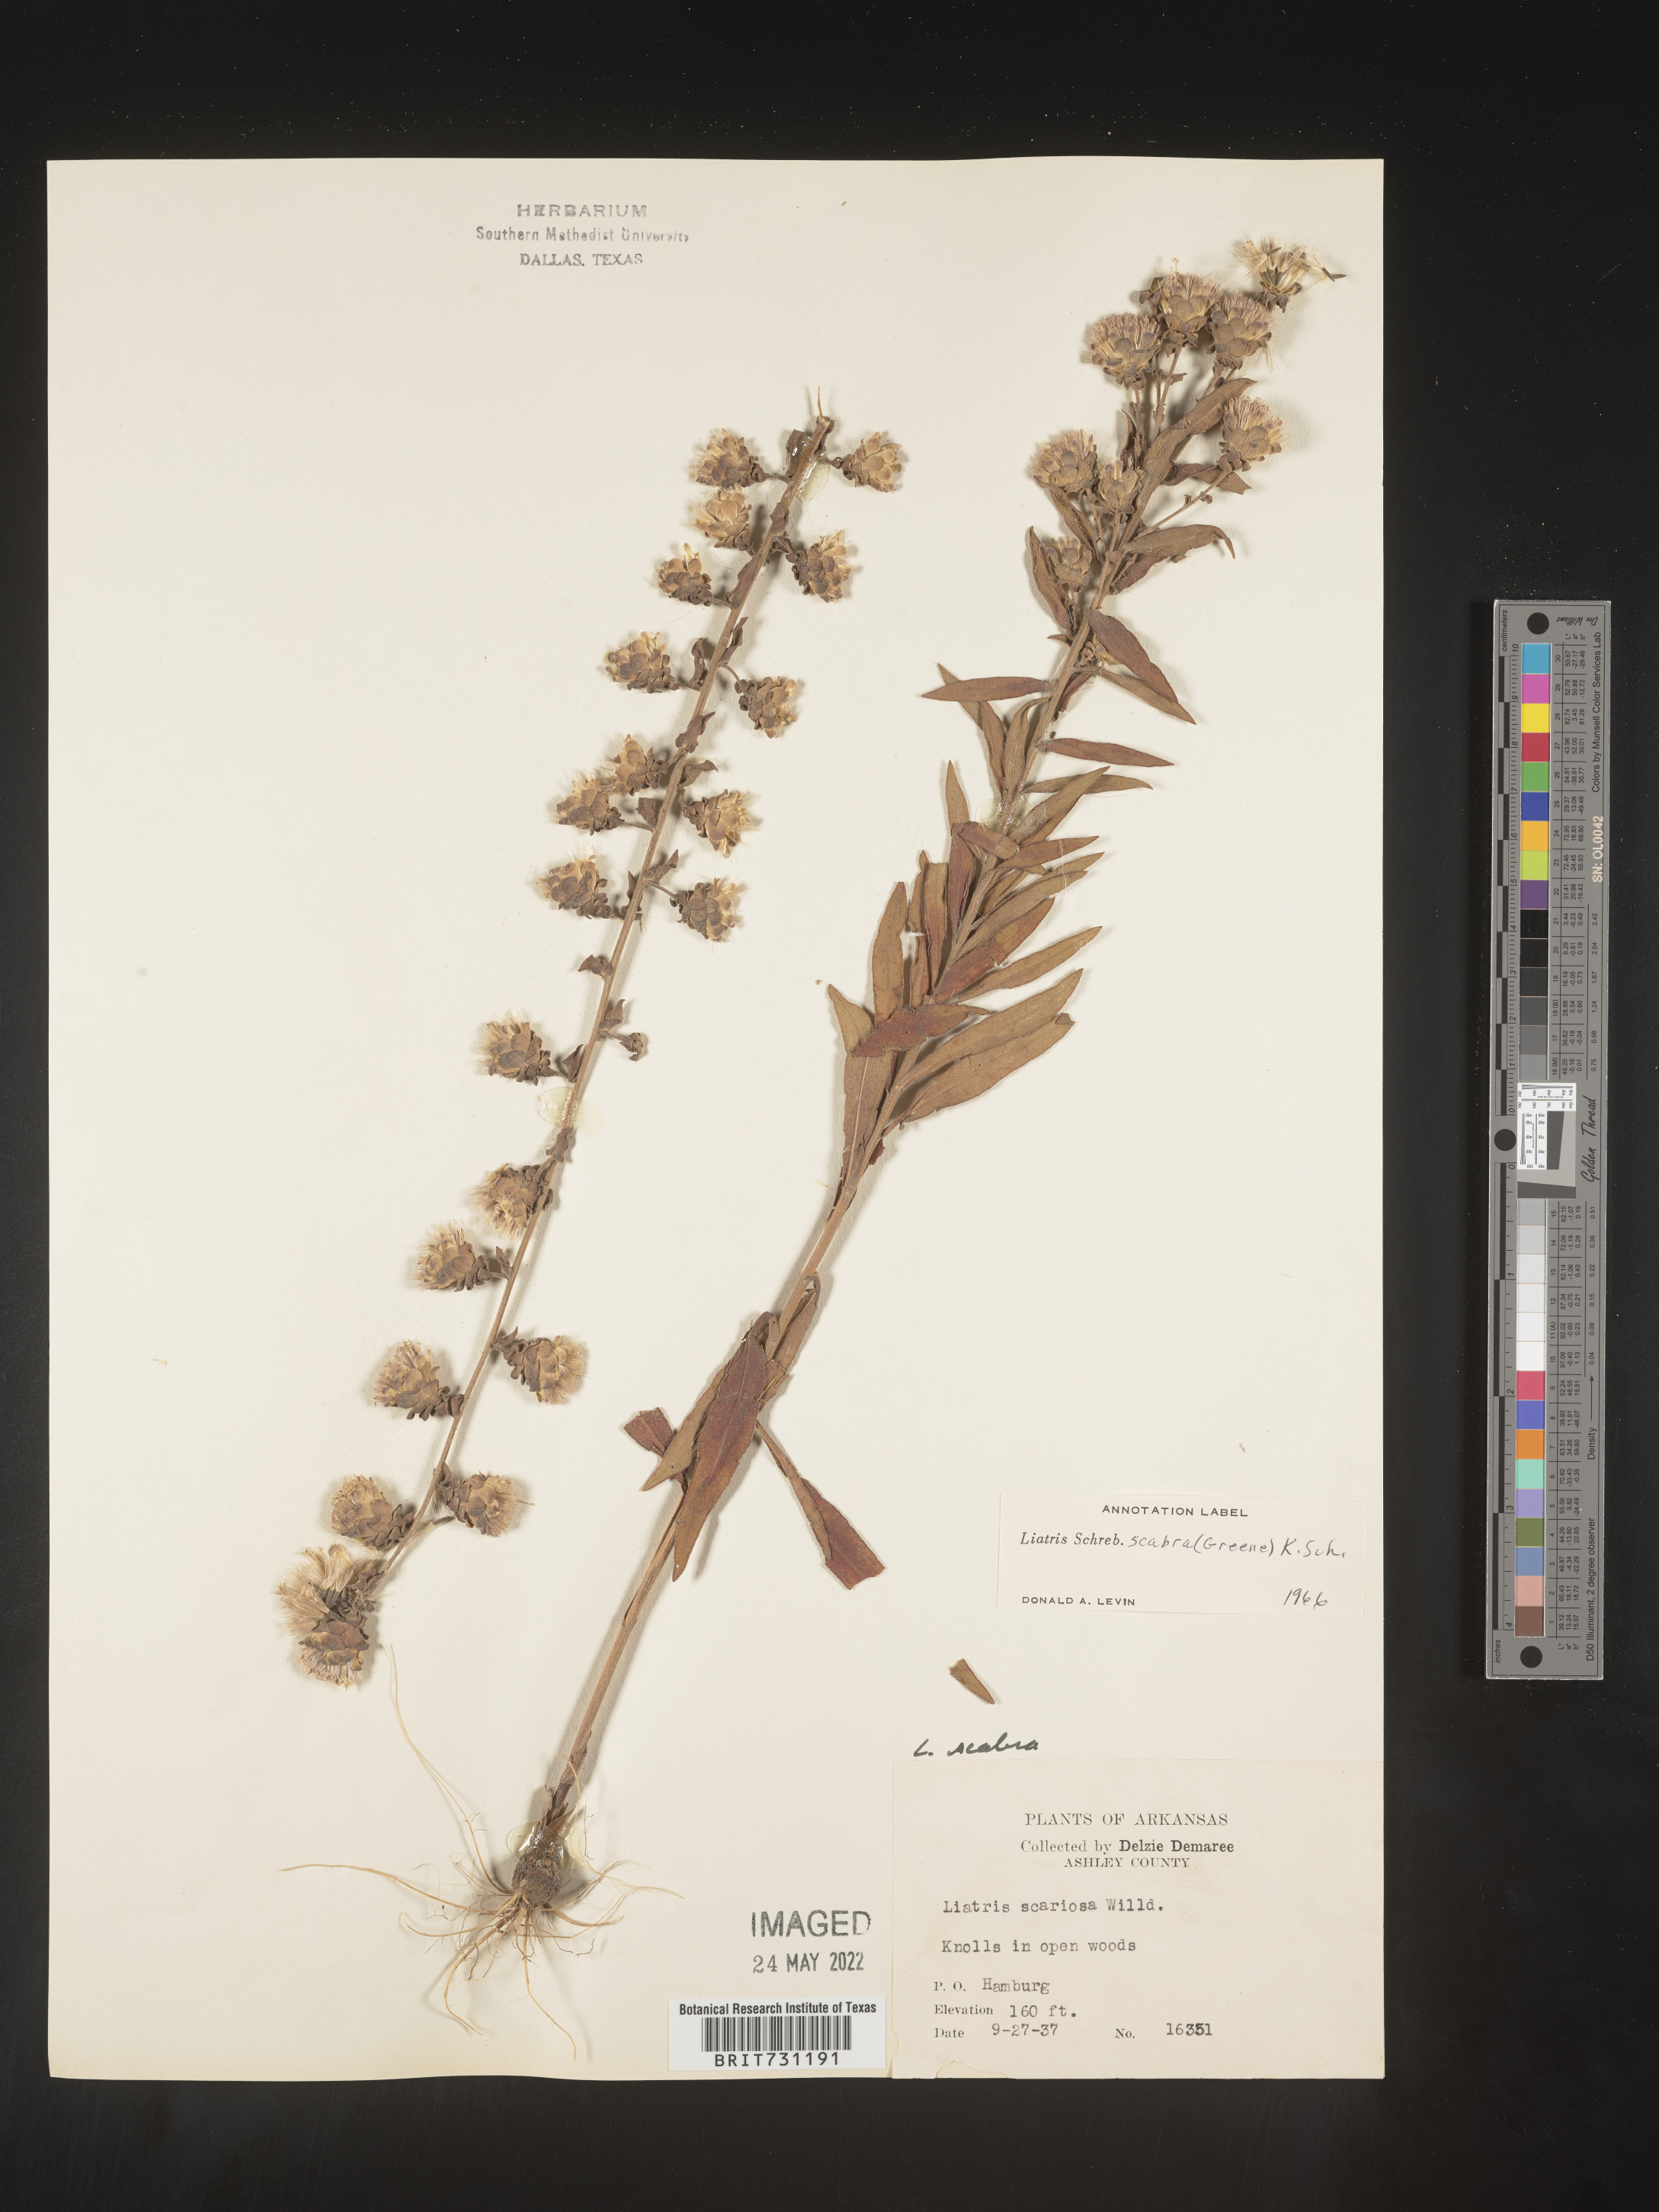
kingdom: Plantae
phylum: Tracheophyta
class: Magnoliopsida
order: Asterales
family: Asteraceae
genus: Liatris
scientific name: Liatris squarrulosa
